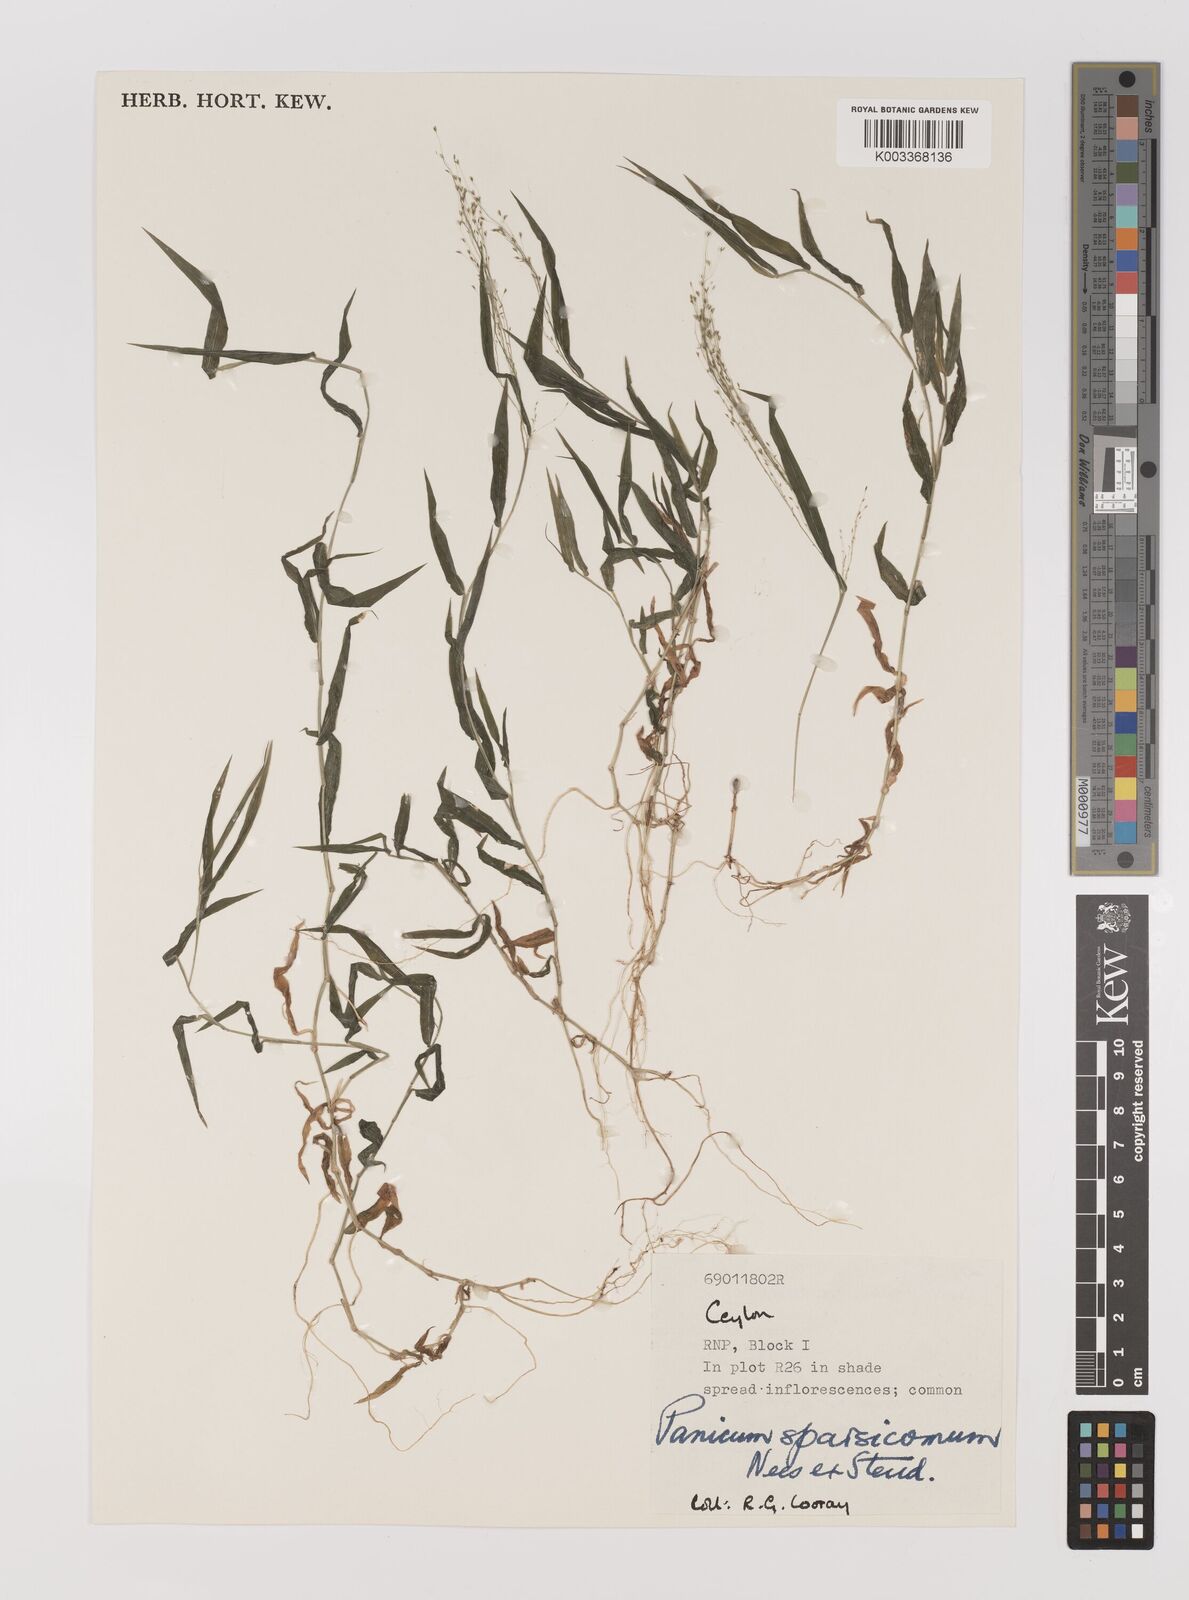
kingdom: Plantae
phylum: Tracheophyta
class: Liliopsida
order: Poales
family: Poaceae
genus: Panicum
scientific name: Panicum sparsicomum
